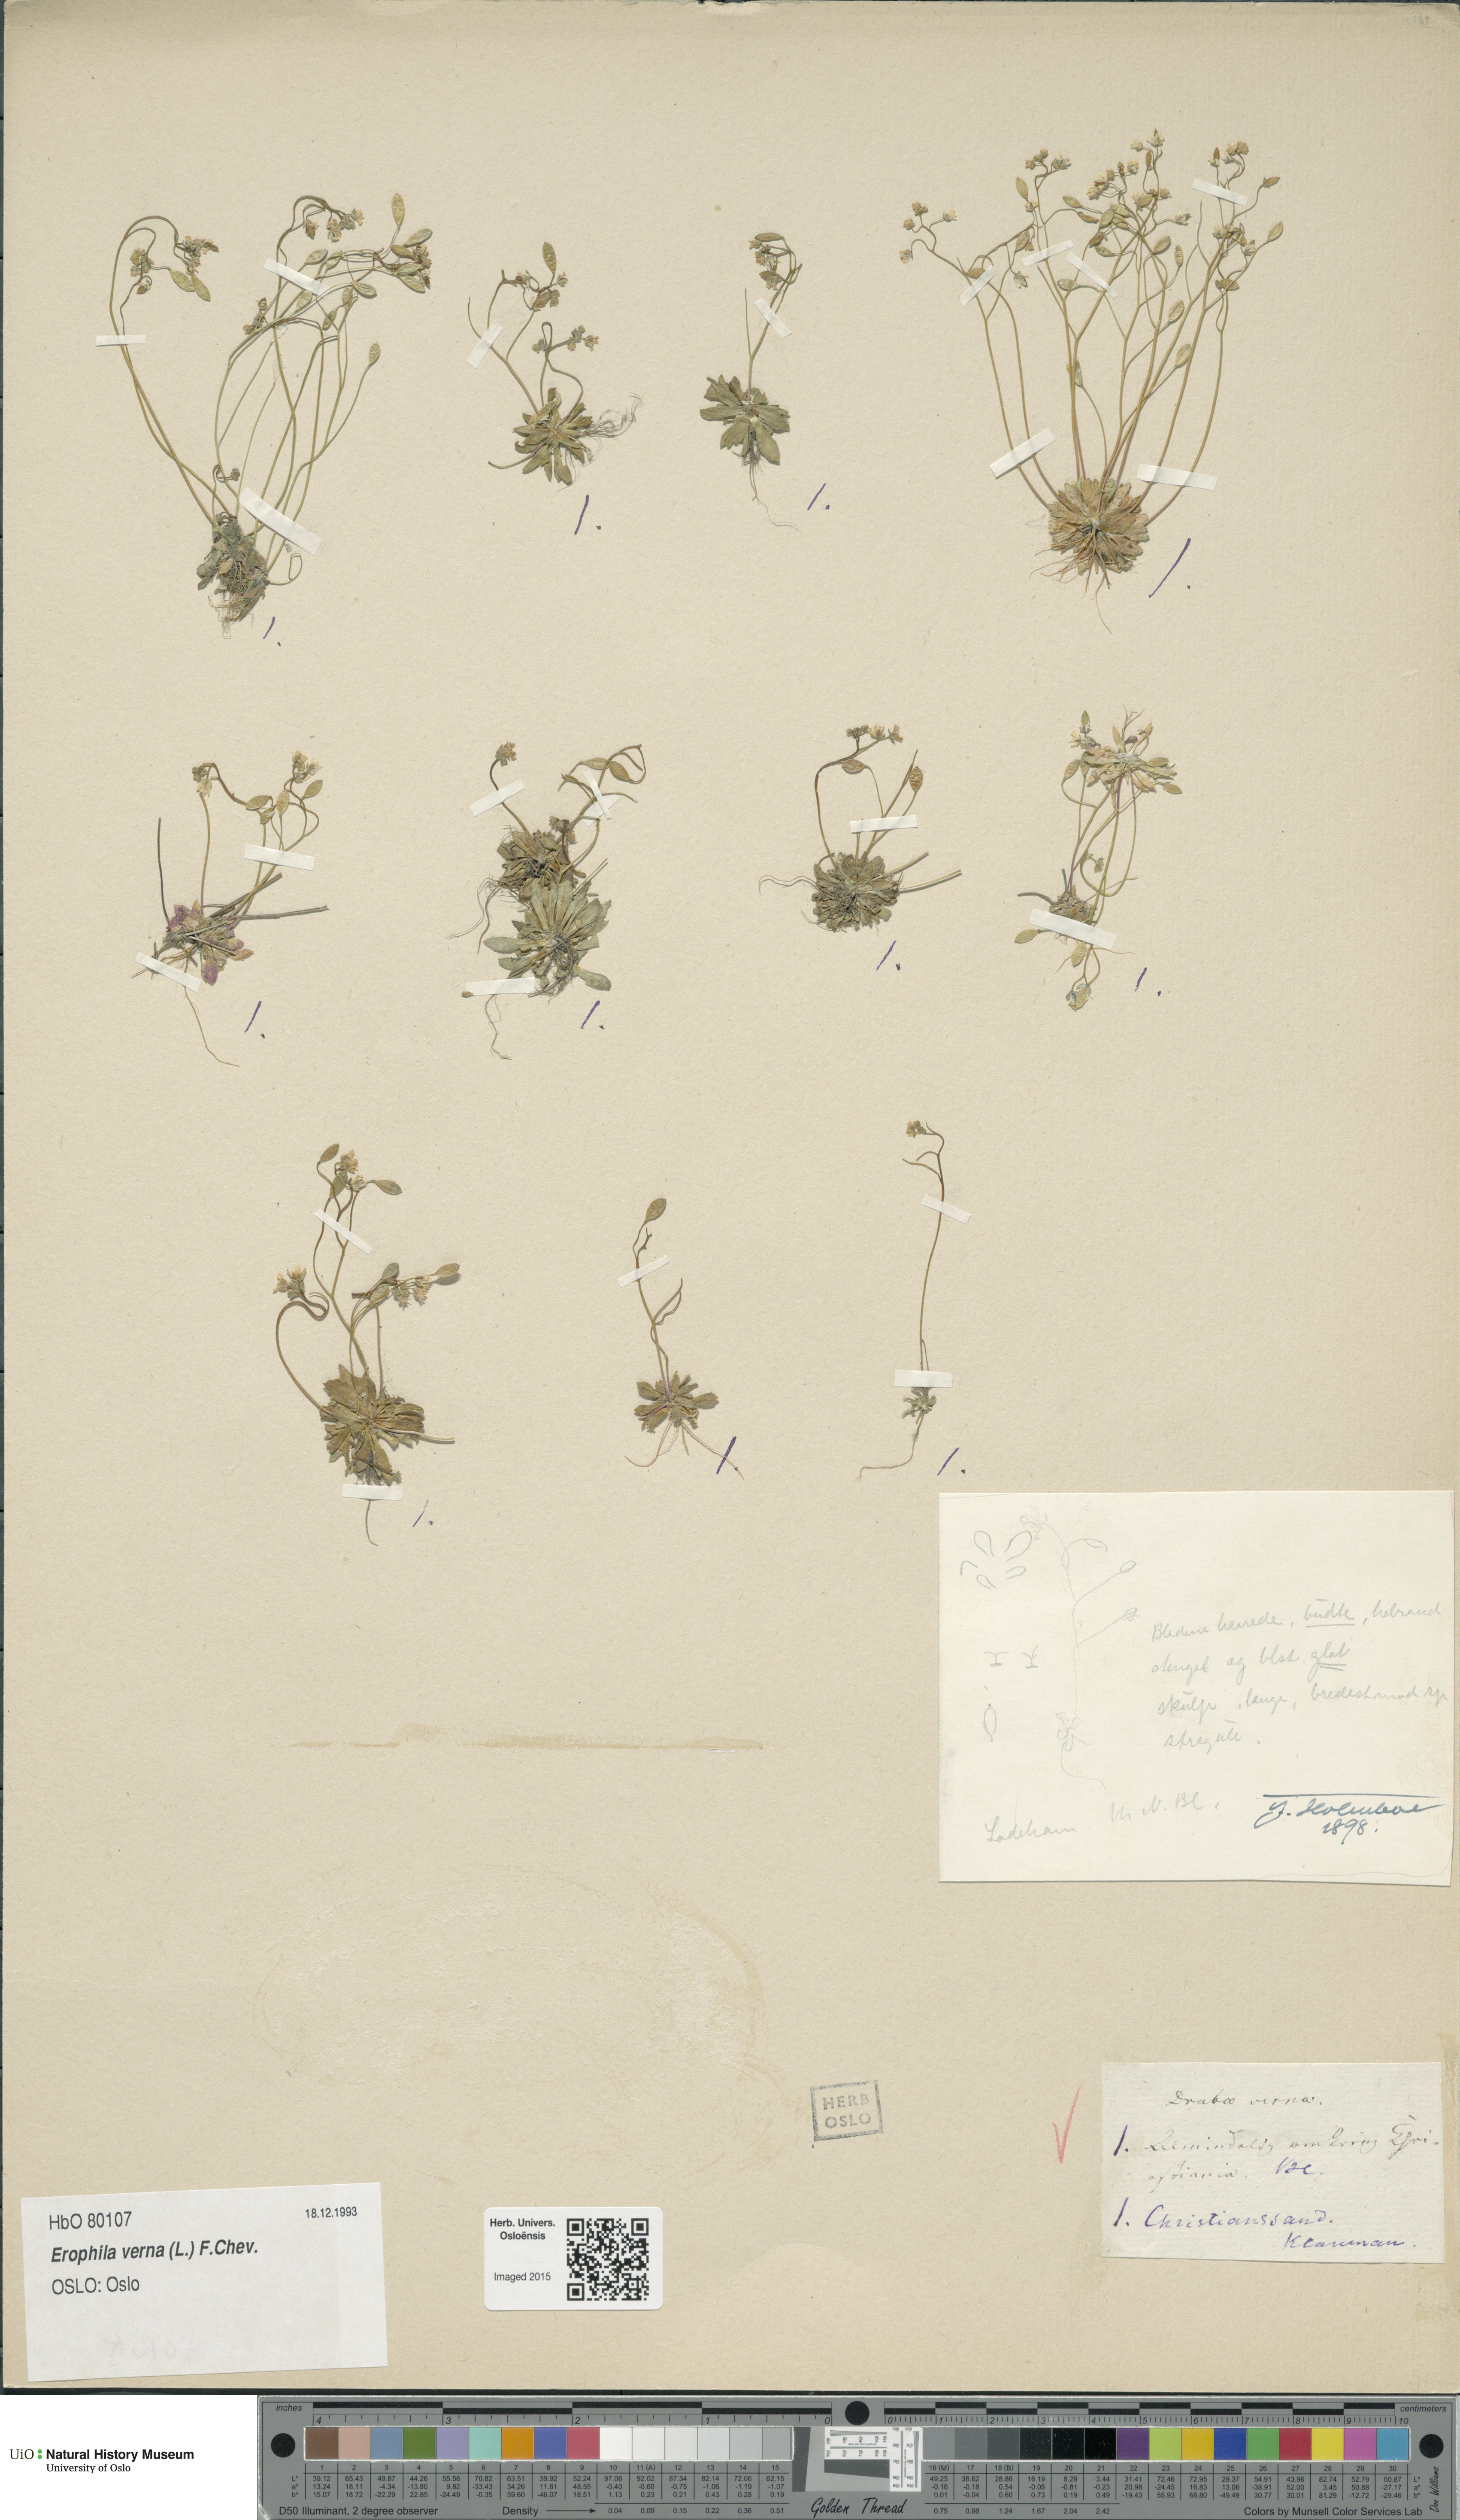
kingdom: Plantae
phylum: Tracheophyta
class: Magnoliopsida
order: Brassicales
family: Brassicaceae
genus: Draba
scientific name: Draba verna
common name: Spring draba
